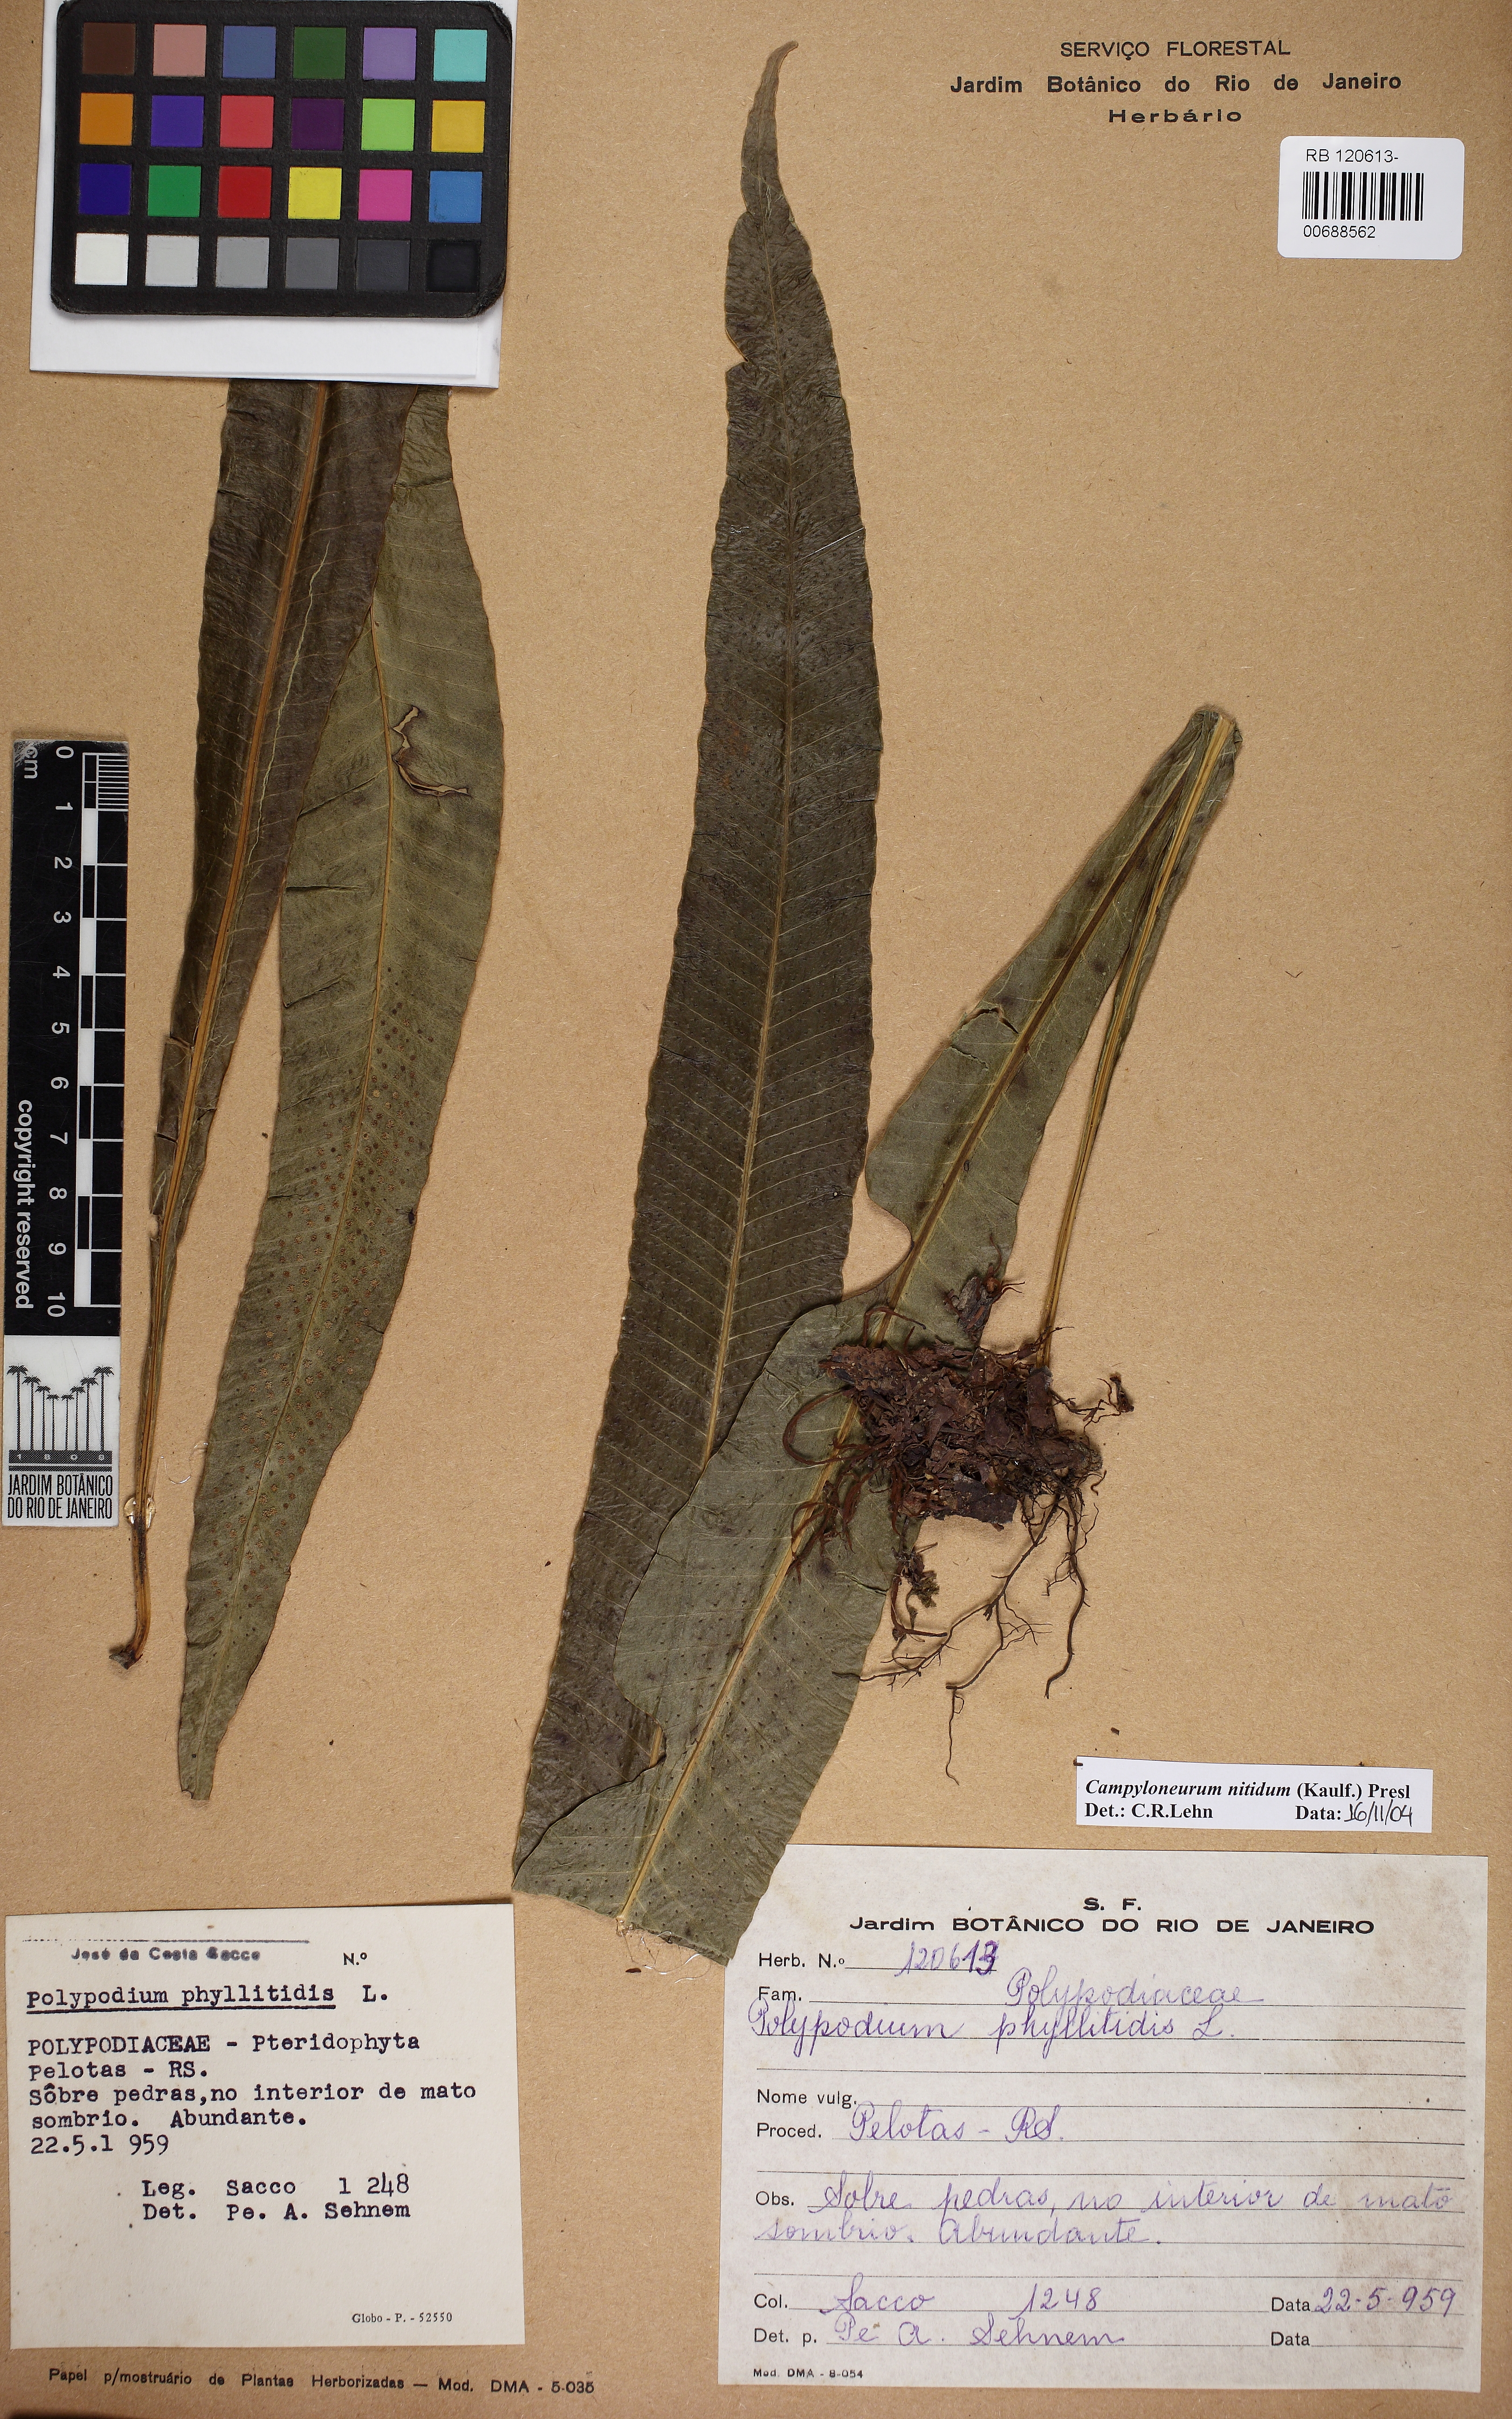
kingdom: Plantae
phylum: Tracheophyta
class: Polypodiopsida
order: Polypodiales
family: Polypodiaceae
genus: Campyloneurum
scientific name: Campyloneurum nitidum
